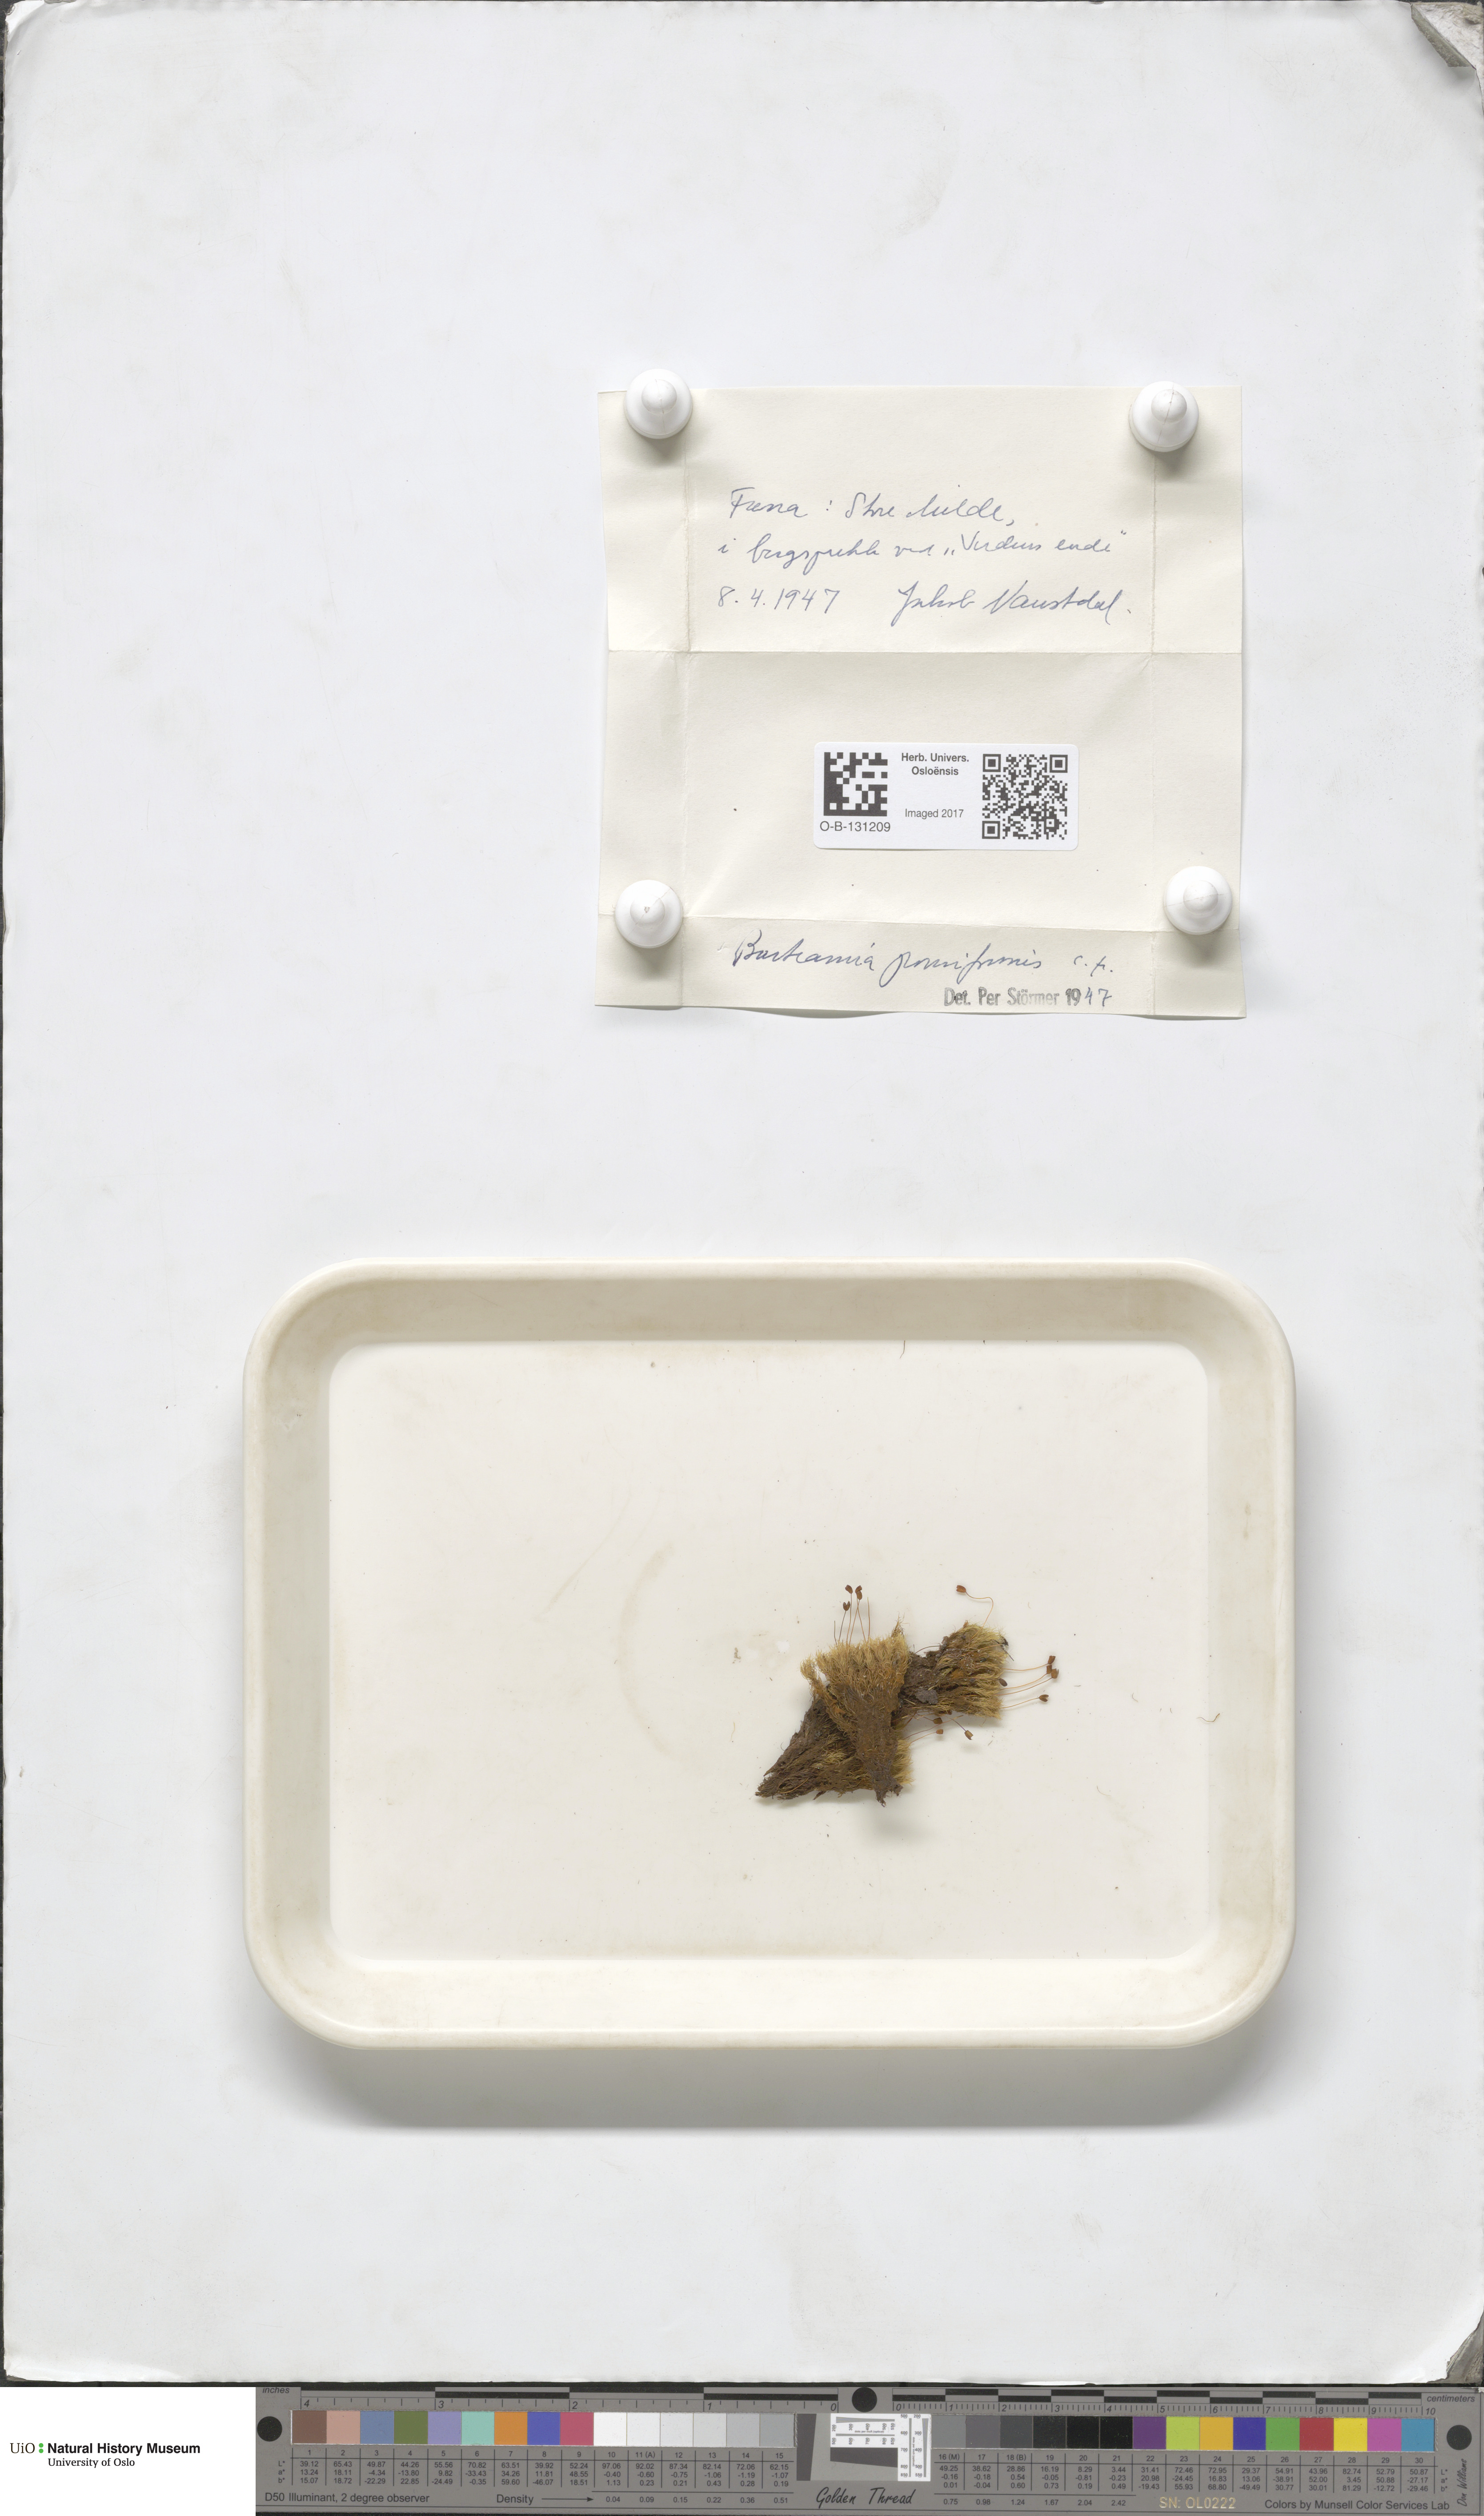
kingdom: Plantae
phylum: Bryophyta
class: Bryopsida
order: Bartramiales
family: Bartramiaceae
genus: Bartramia
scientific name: Bartramia pomiformis
